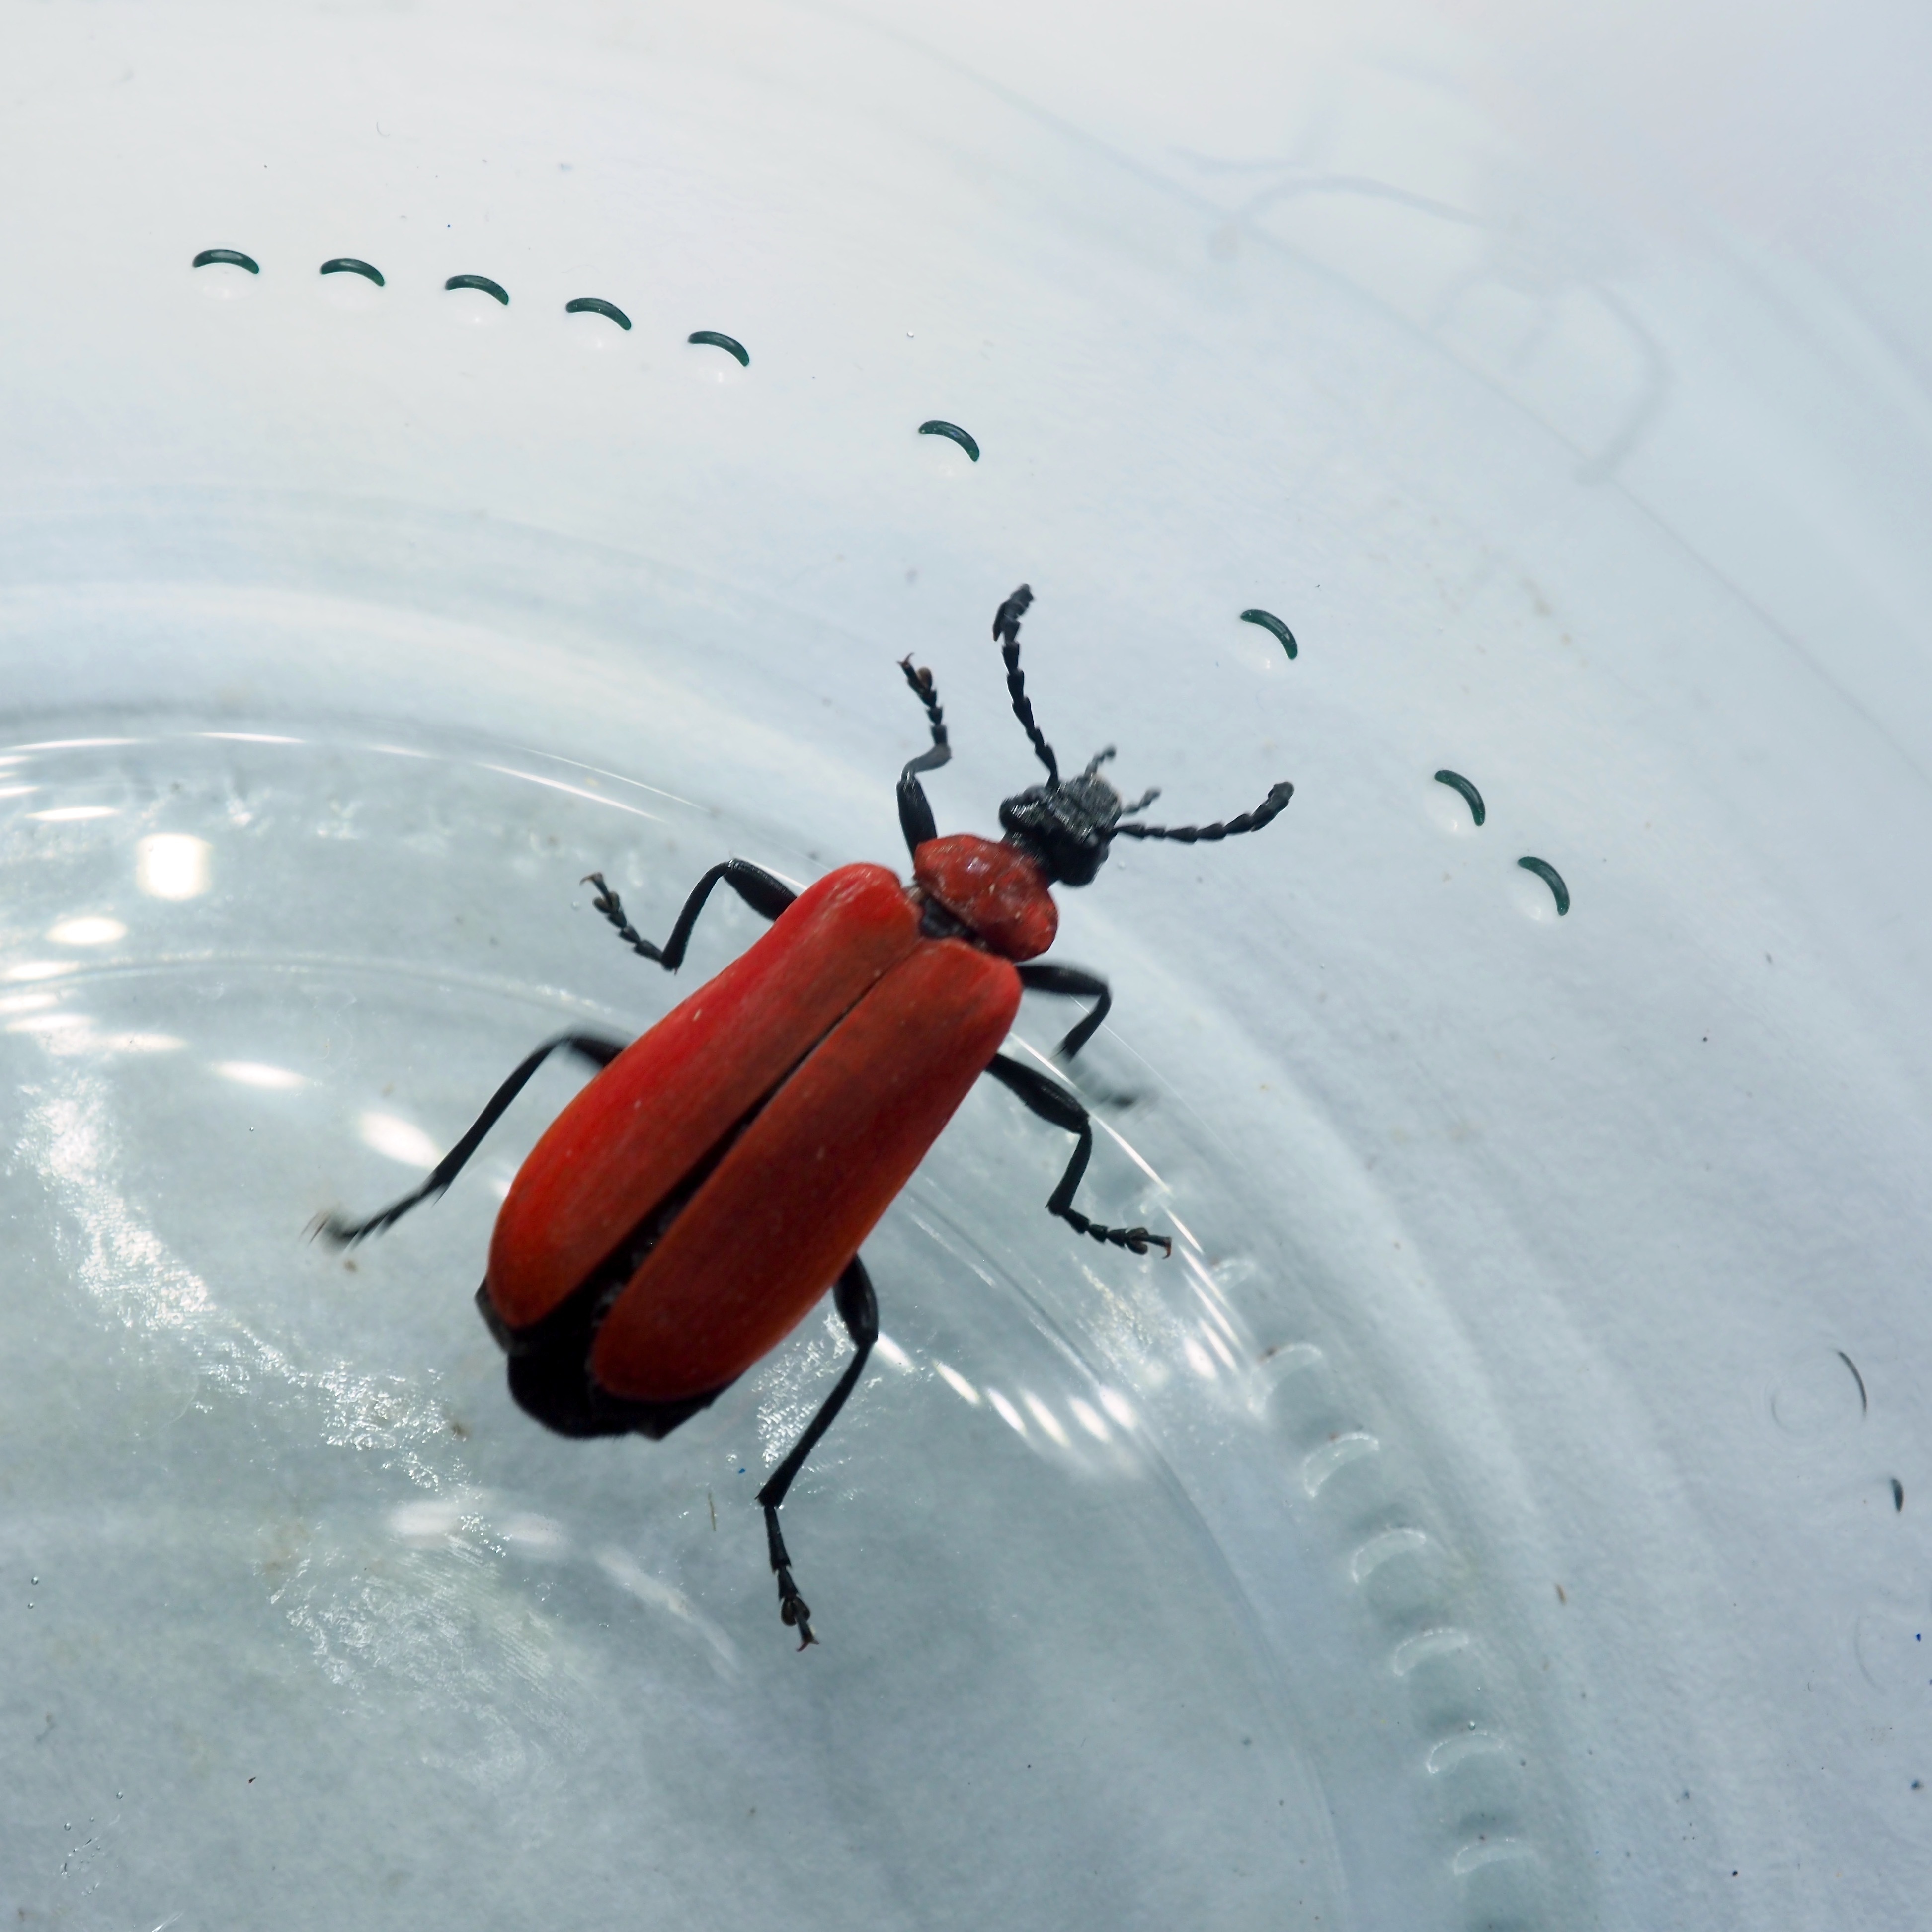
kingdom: Animalia
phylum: Arthropoda
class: Insecta
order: Coleoptera
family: Pyrochroidae
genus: Pyrochroa
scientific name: Pyrochroa coccinea
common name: Black-headed cardinal beetle
